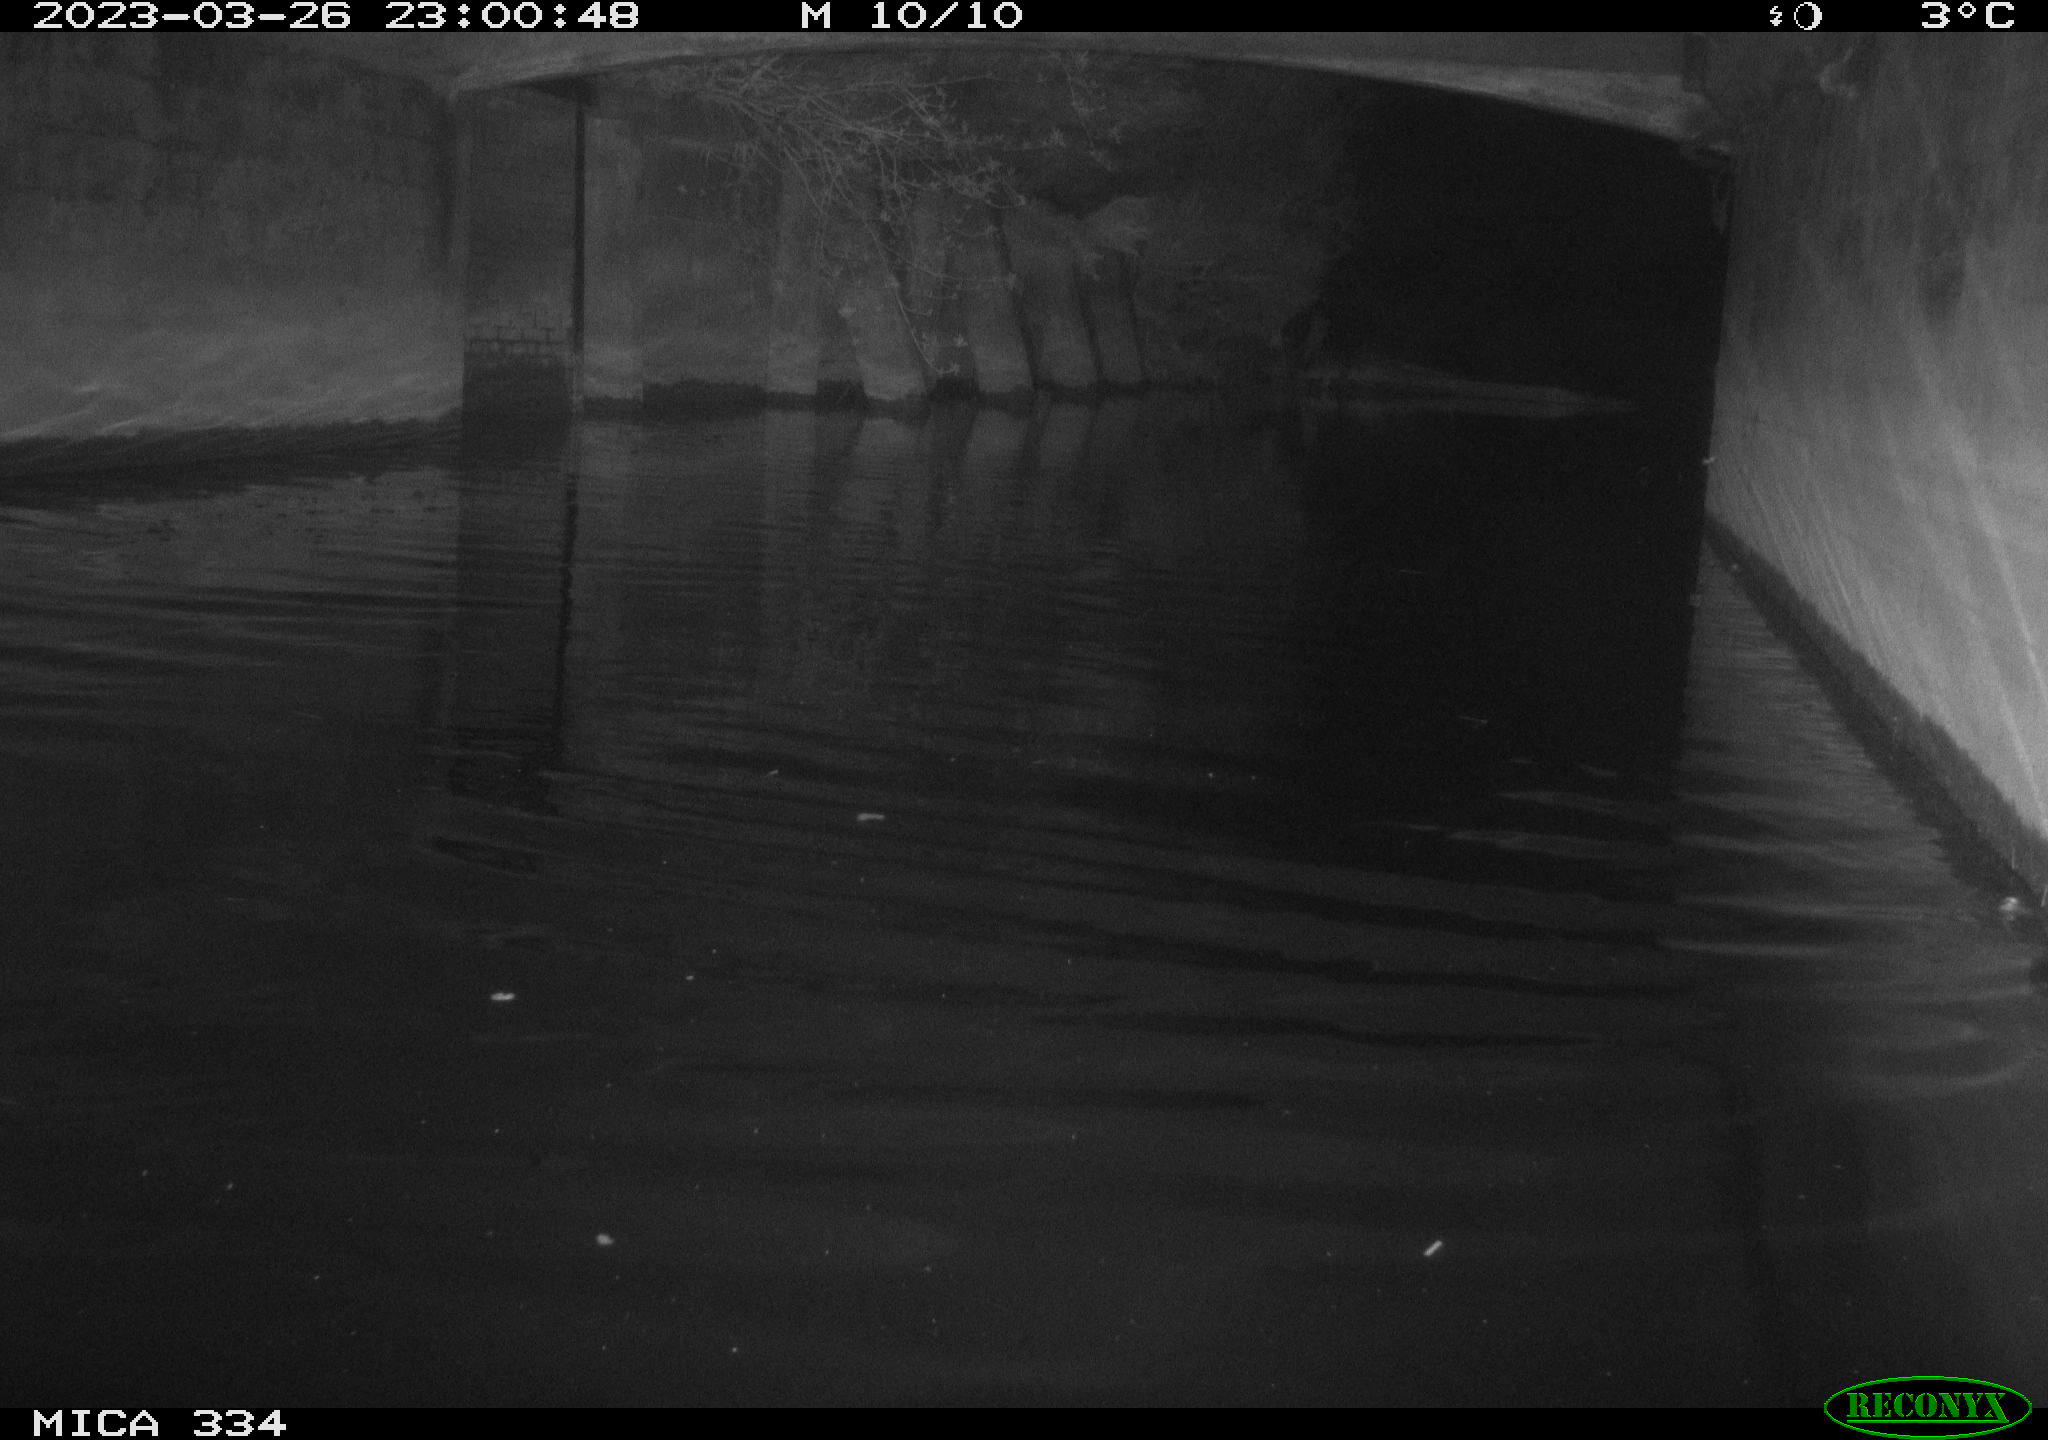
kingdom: Animalia
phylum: Chordata
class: Aves
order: Anseriformes
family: Anatidae
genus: Anas
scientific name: Anas
